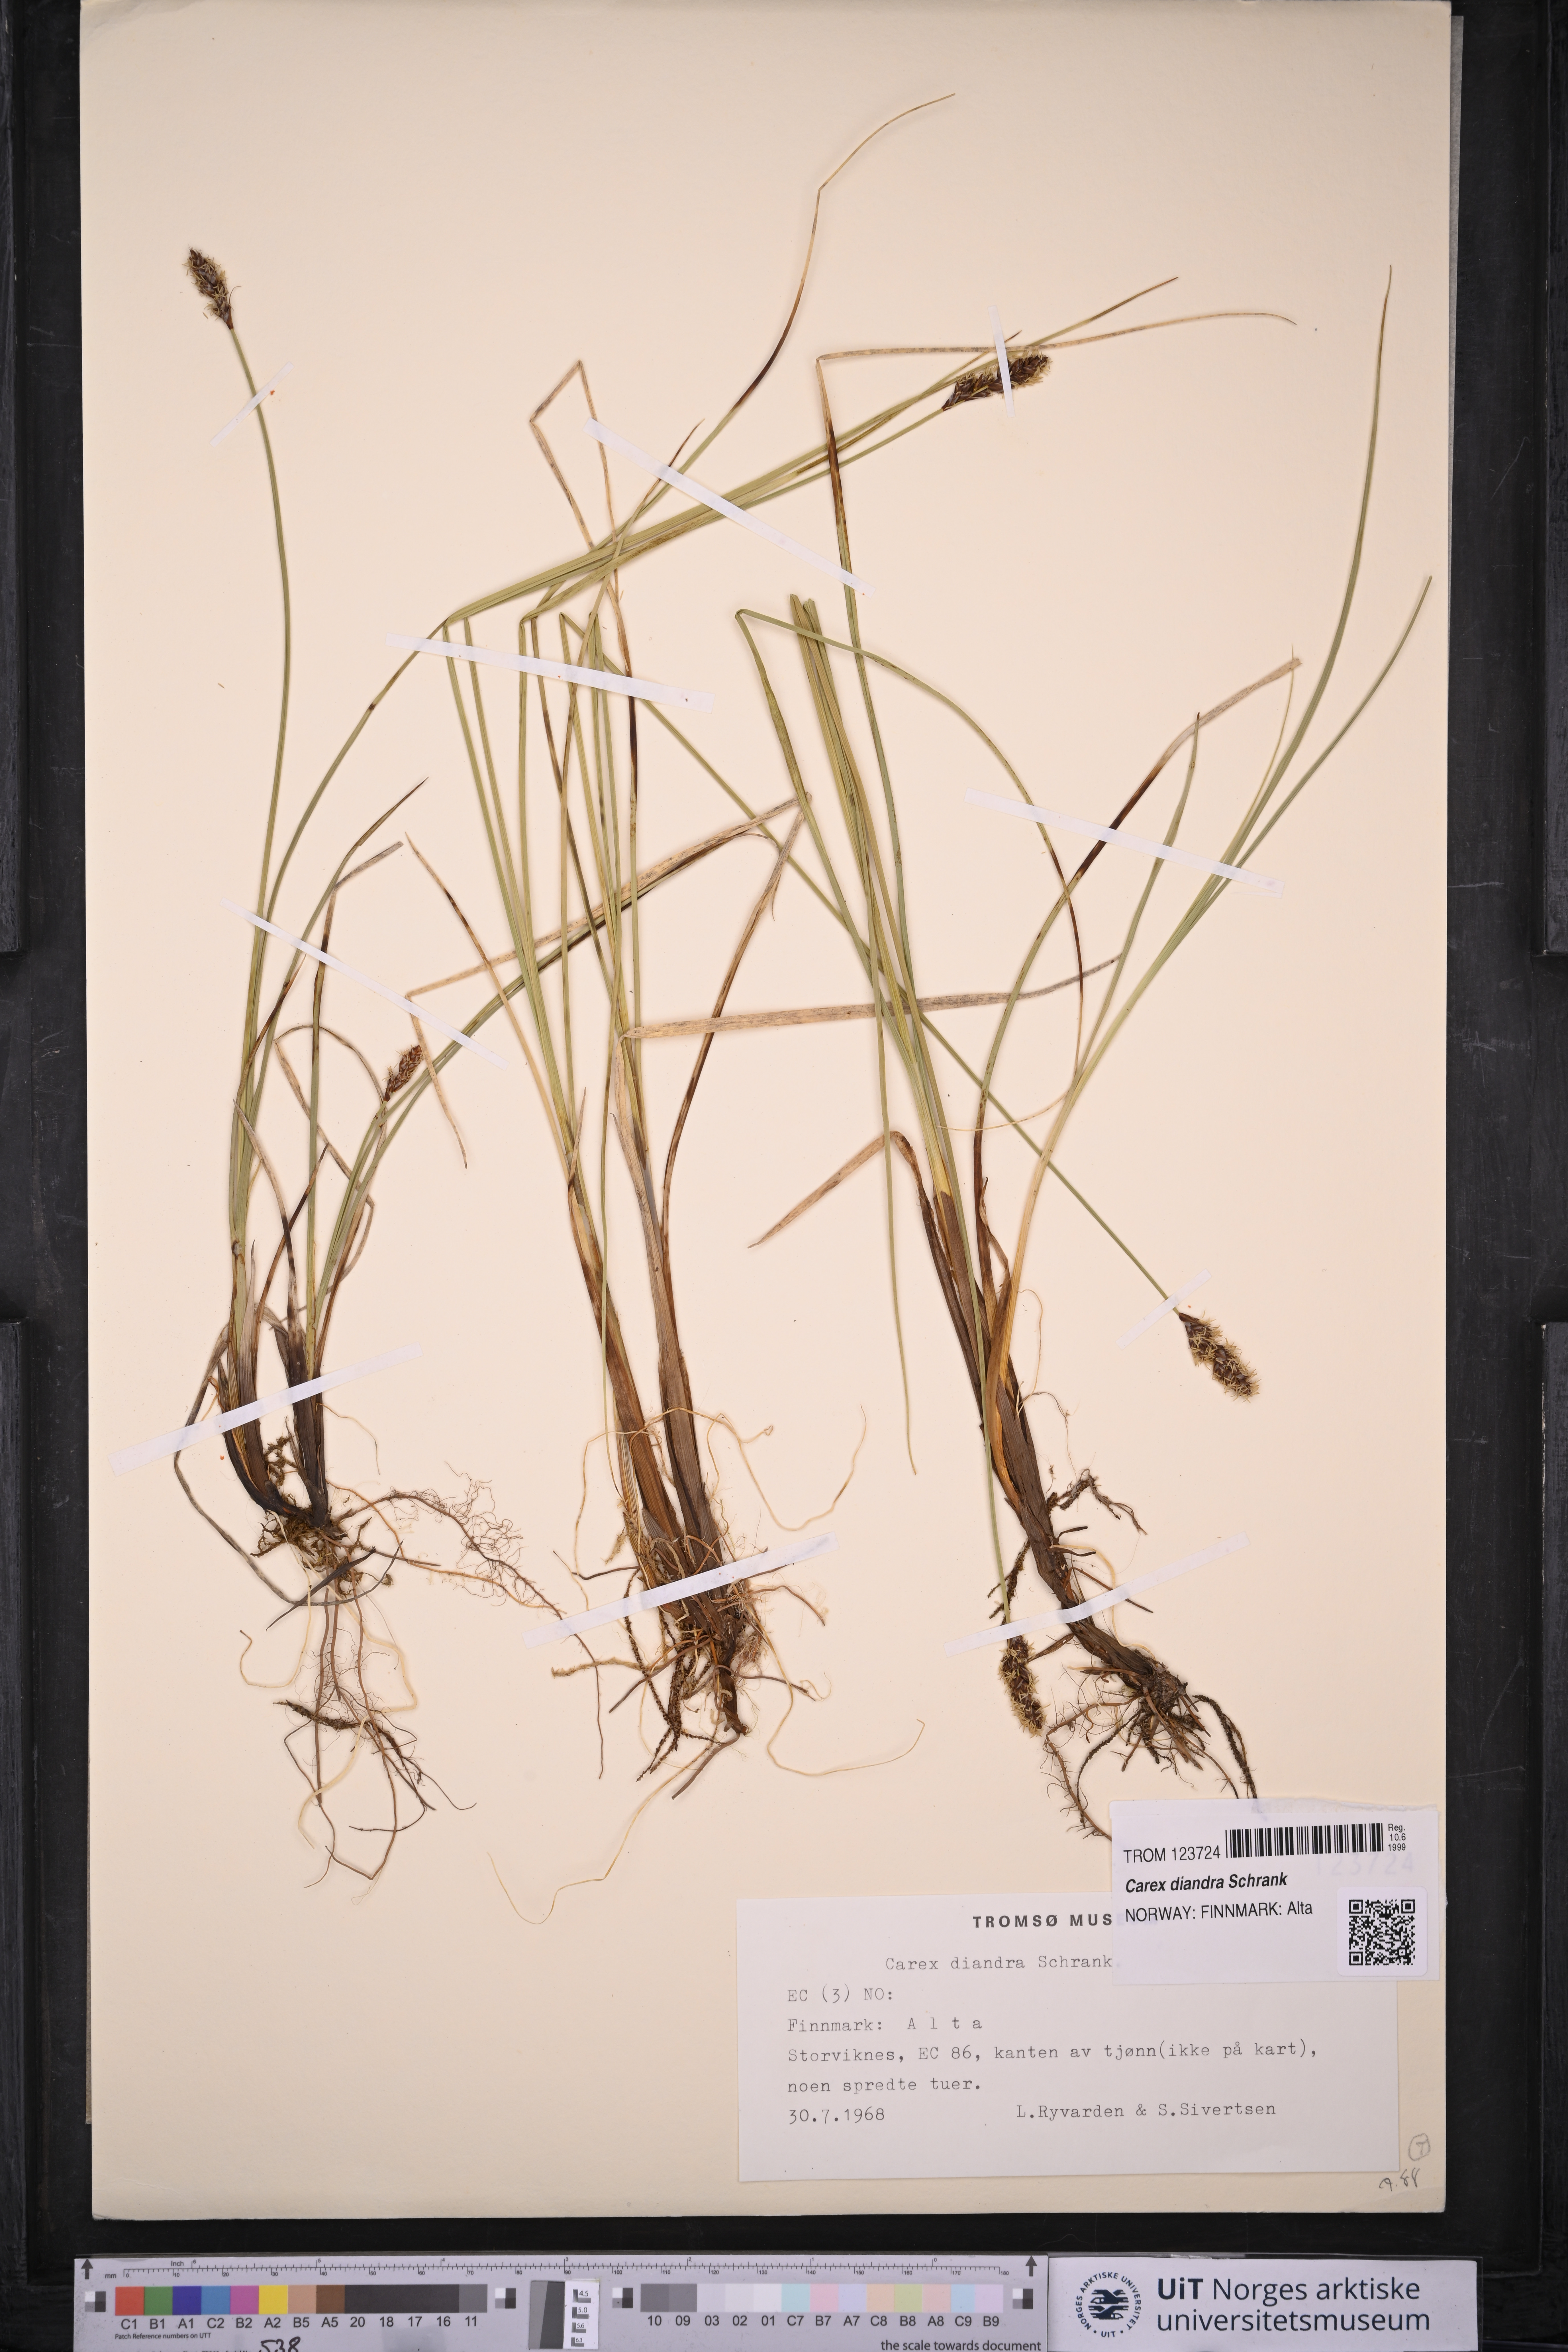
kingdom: Plantae
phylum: Tracheophyta
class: Liliopsida
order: Poales
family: Cyperaceae
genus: Carex
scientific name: Carex diandra
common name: Lesser tussock-sedge
